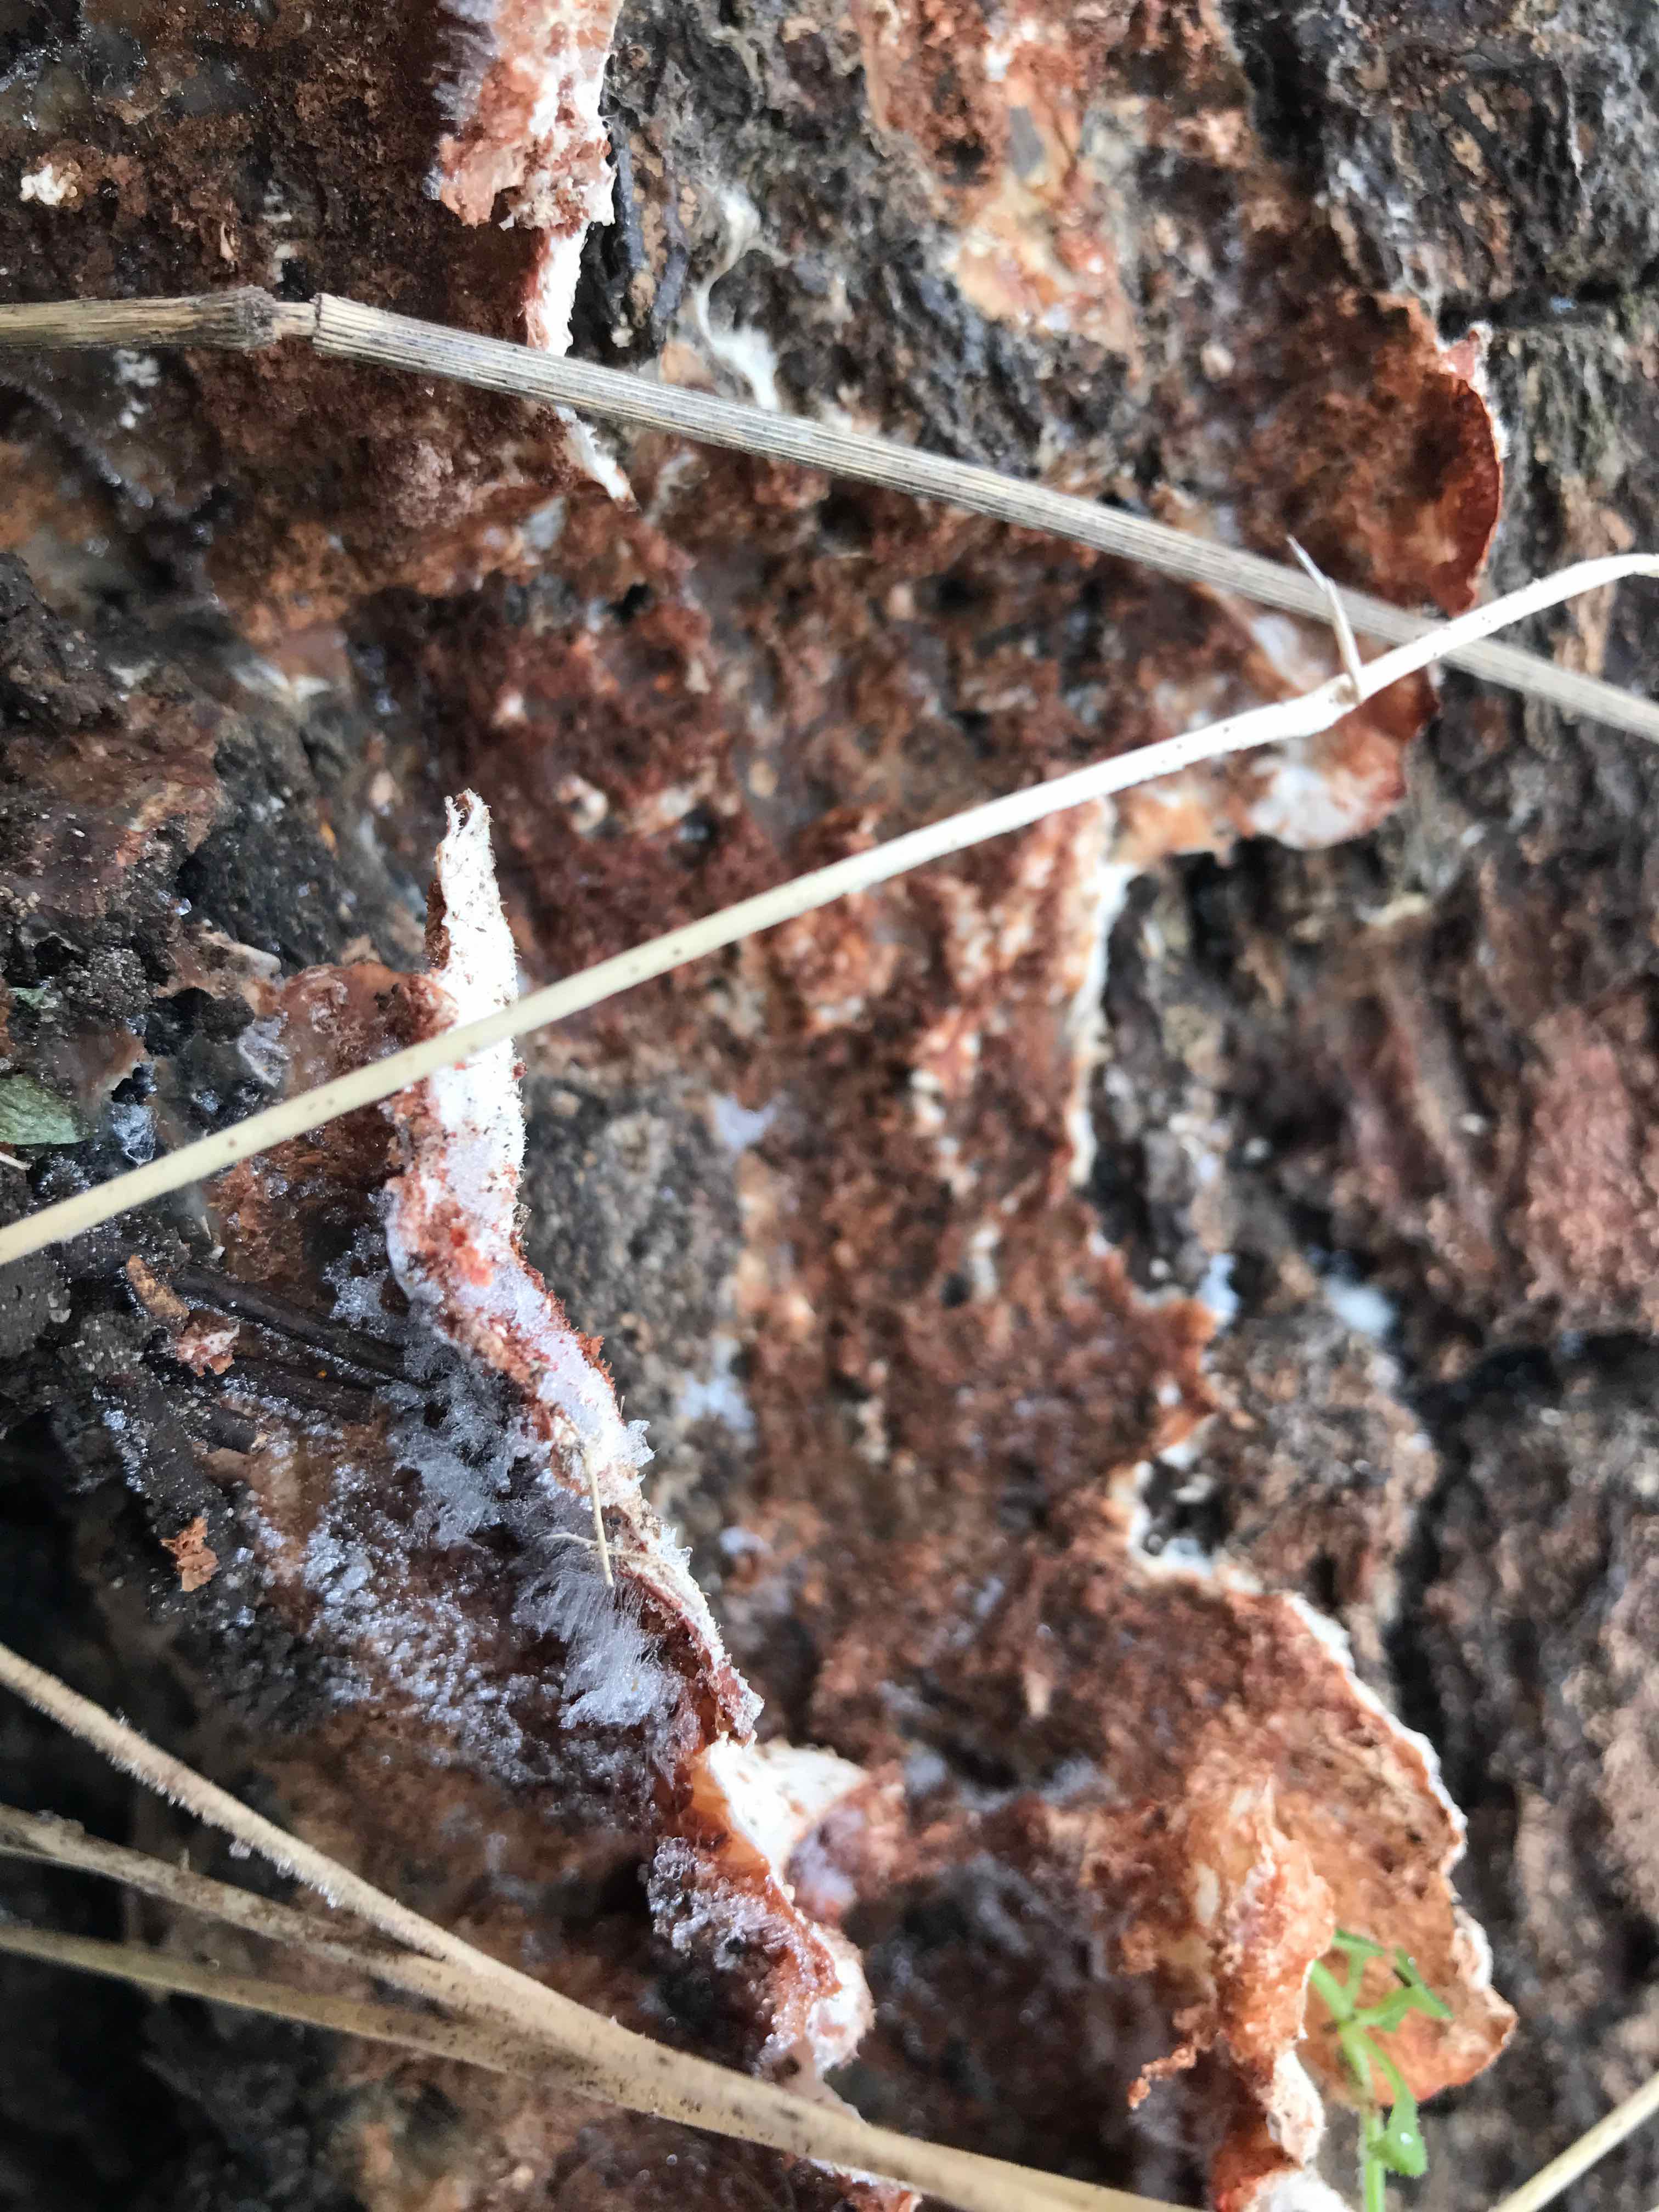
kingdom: Fungi
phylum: Basidiomycota
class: Agaricomycetes
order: Polyporales
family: Meruliaceae
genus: Phlebia
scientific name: Phlebia tremellosa
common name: bævrende åresvamp
